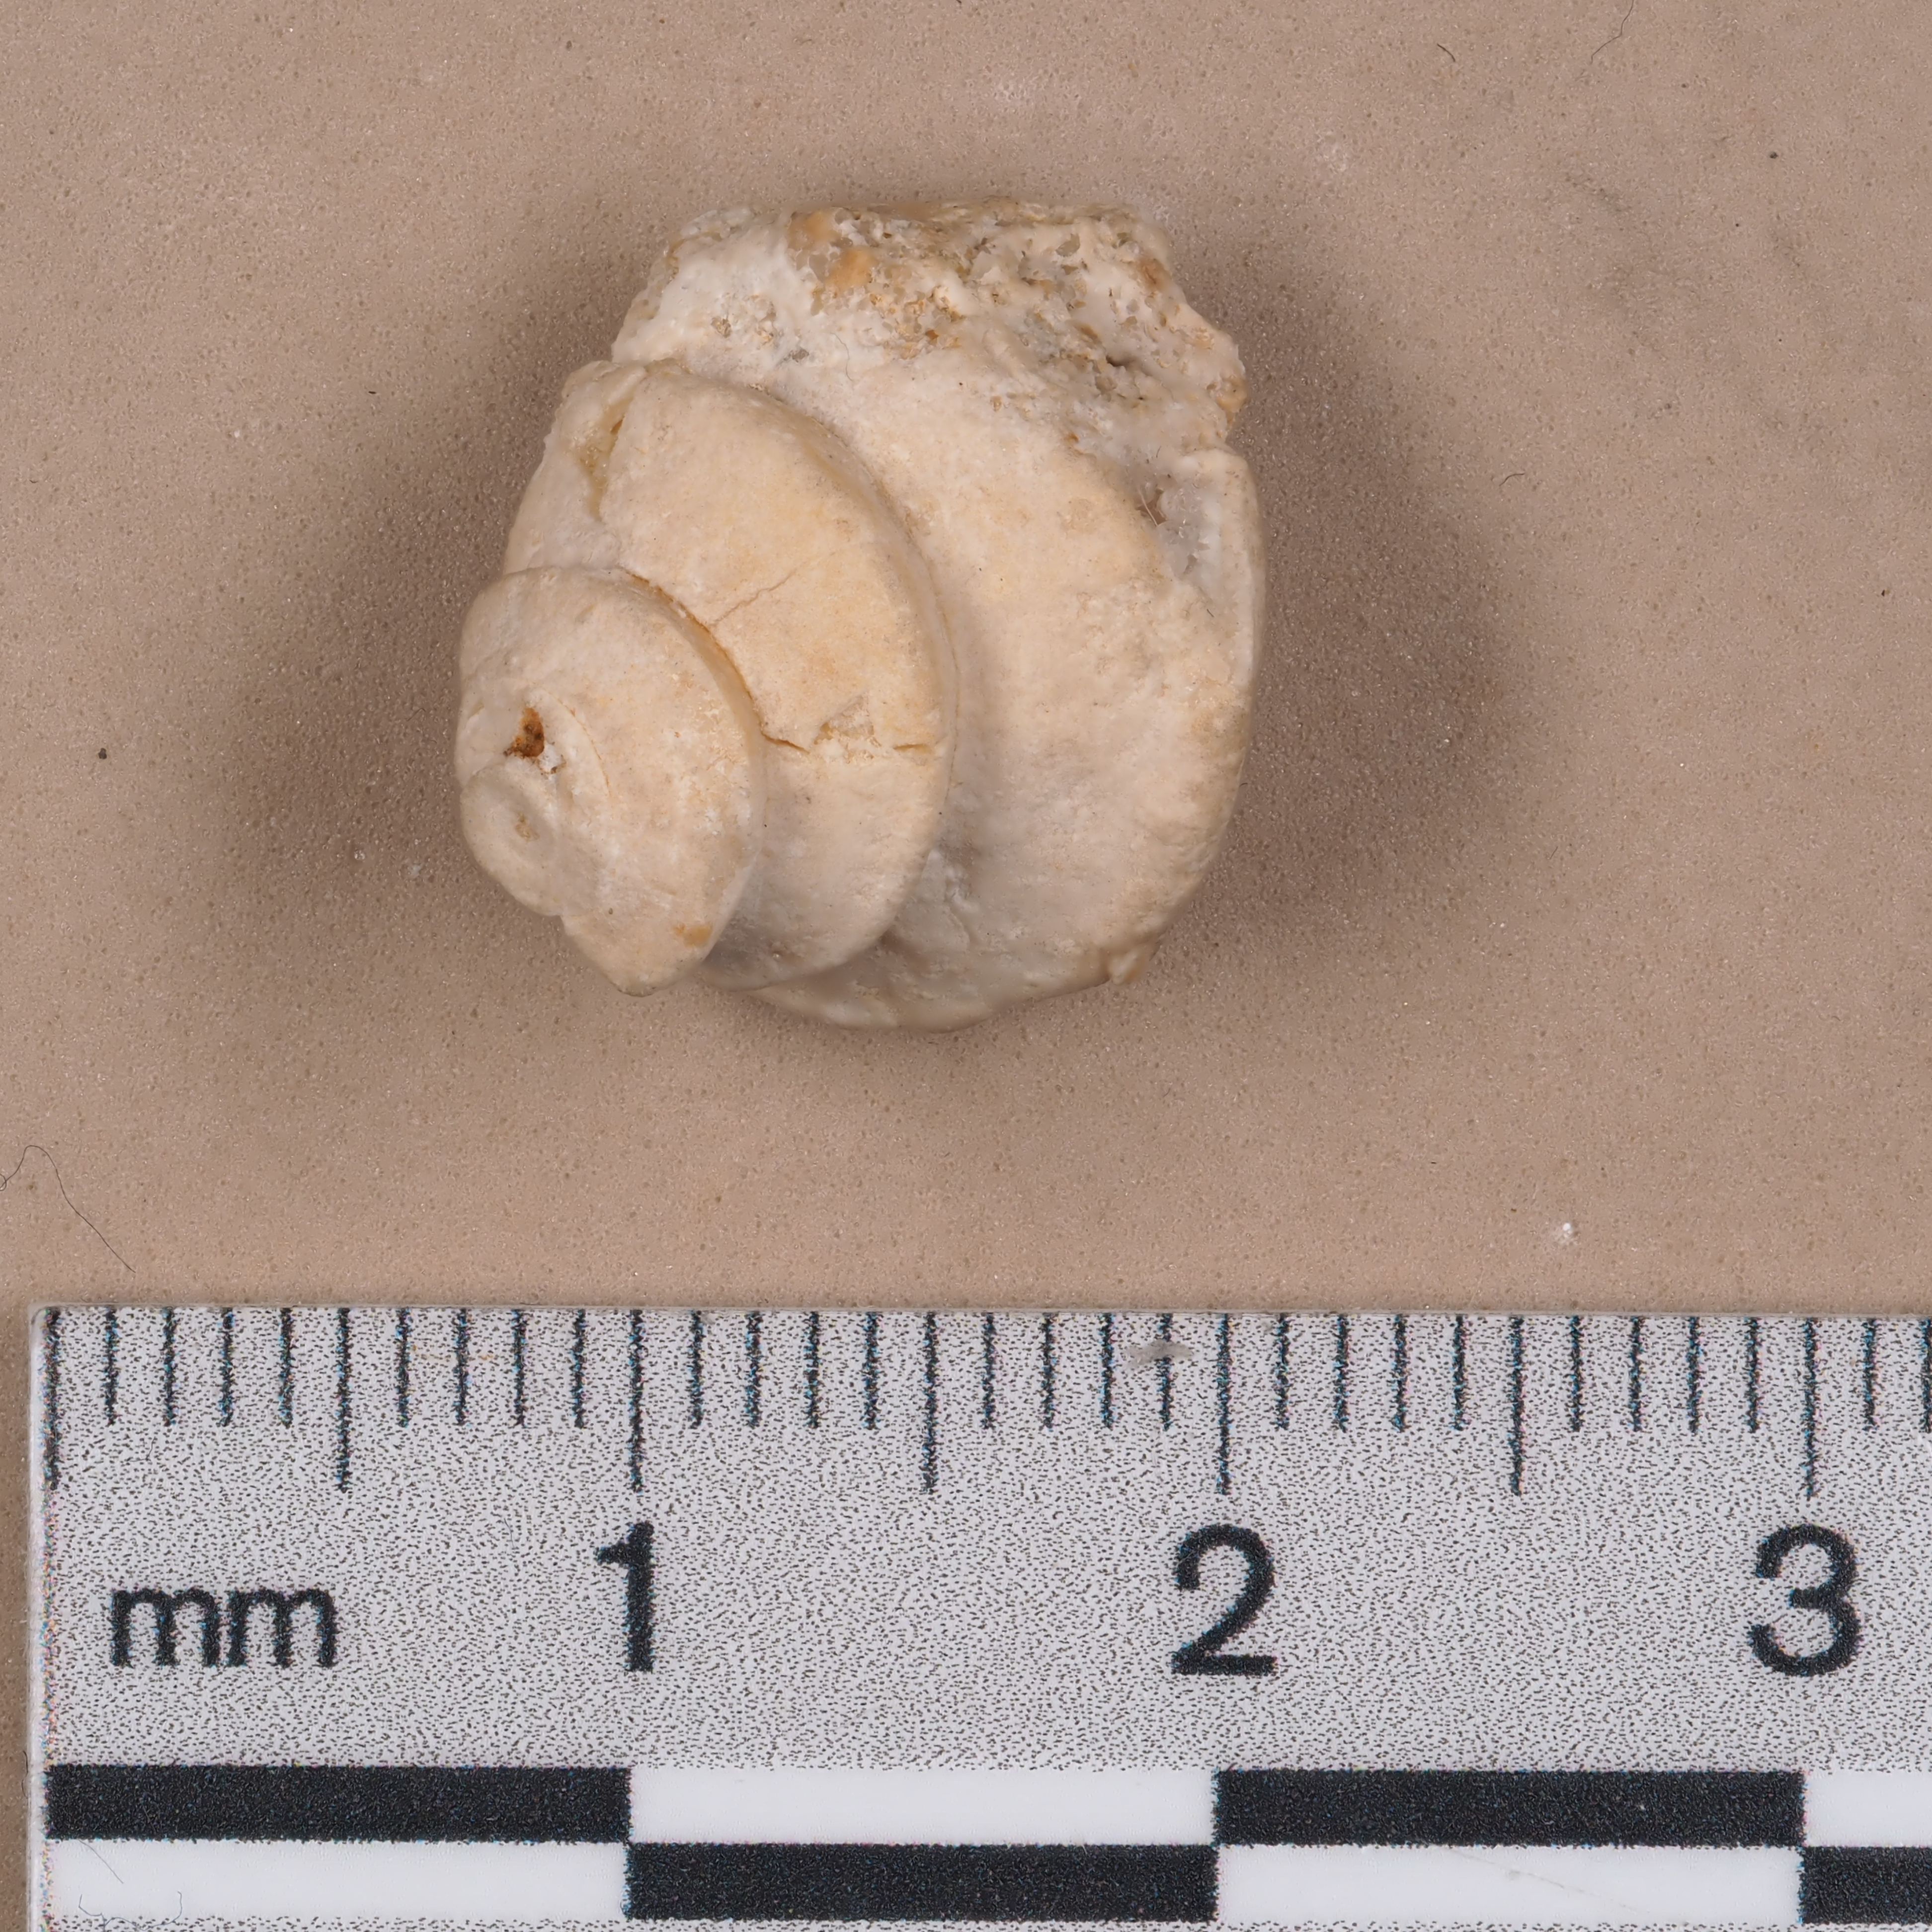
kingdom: Animalia
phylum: Mollusca
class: Gastropoda
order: Pleurotomariida
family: Cirridae
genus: Platyacra
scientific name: Platyacra Trochus sinistrorsus
